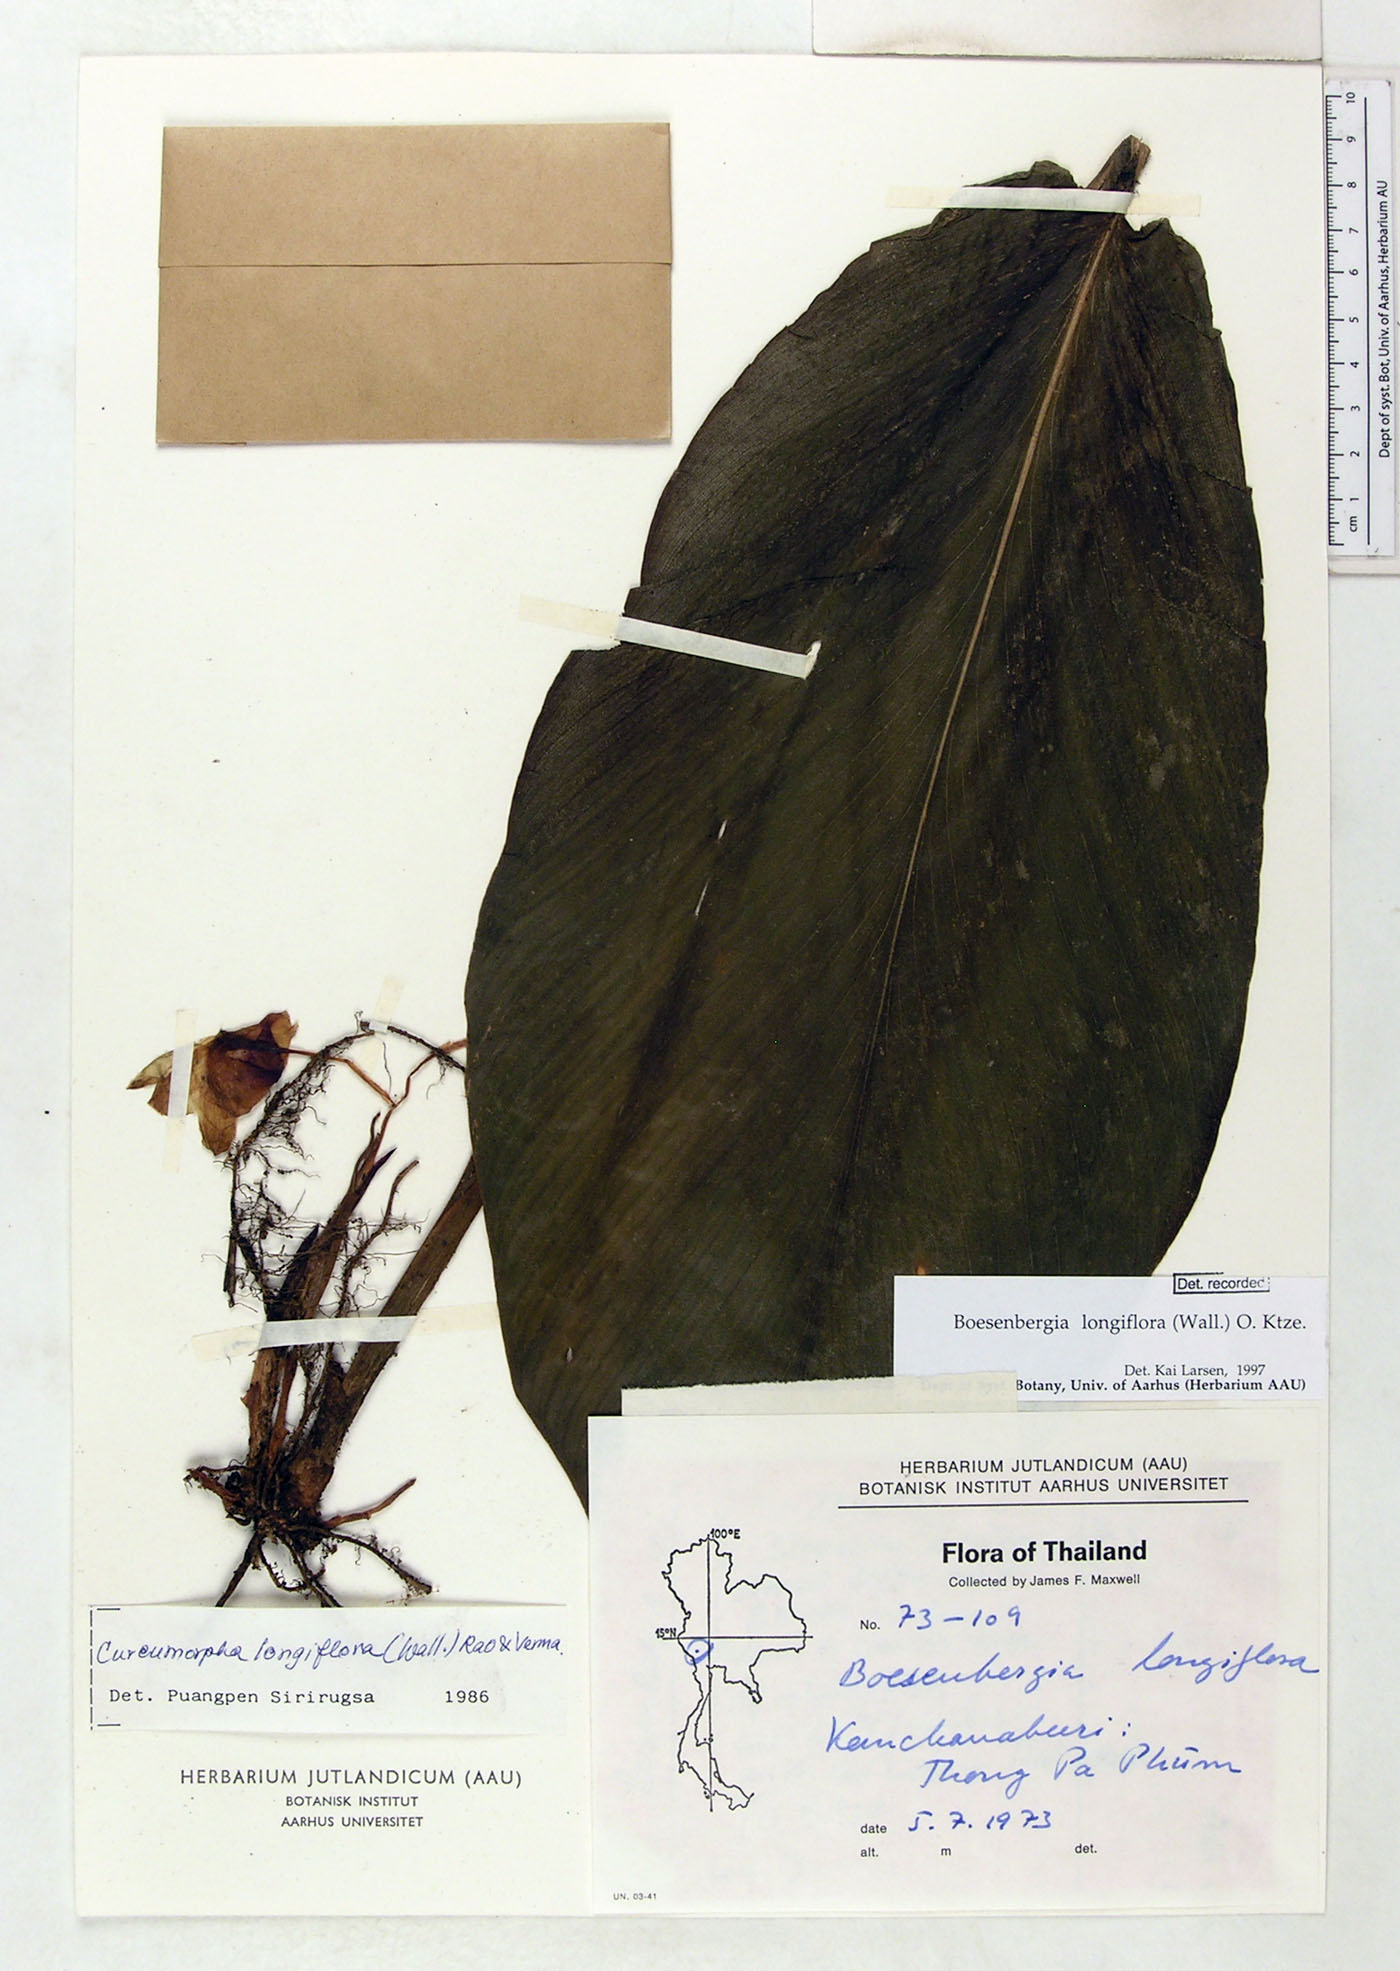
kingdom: Plantae
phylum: Tracheophyta
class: Liliopsida
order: Zingiberales
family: Zingiberaceae
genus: Boesenbergia
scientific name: Boesenbergia longiflora
